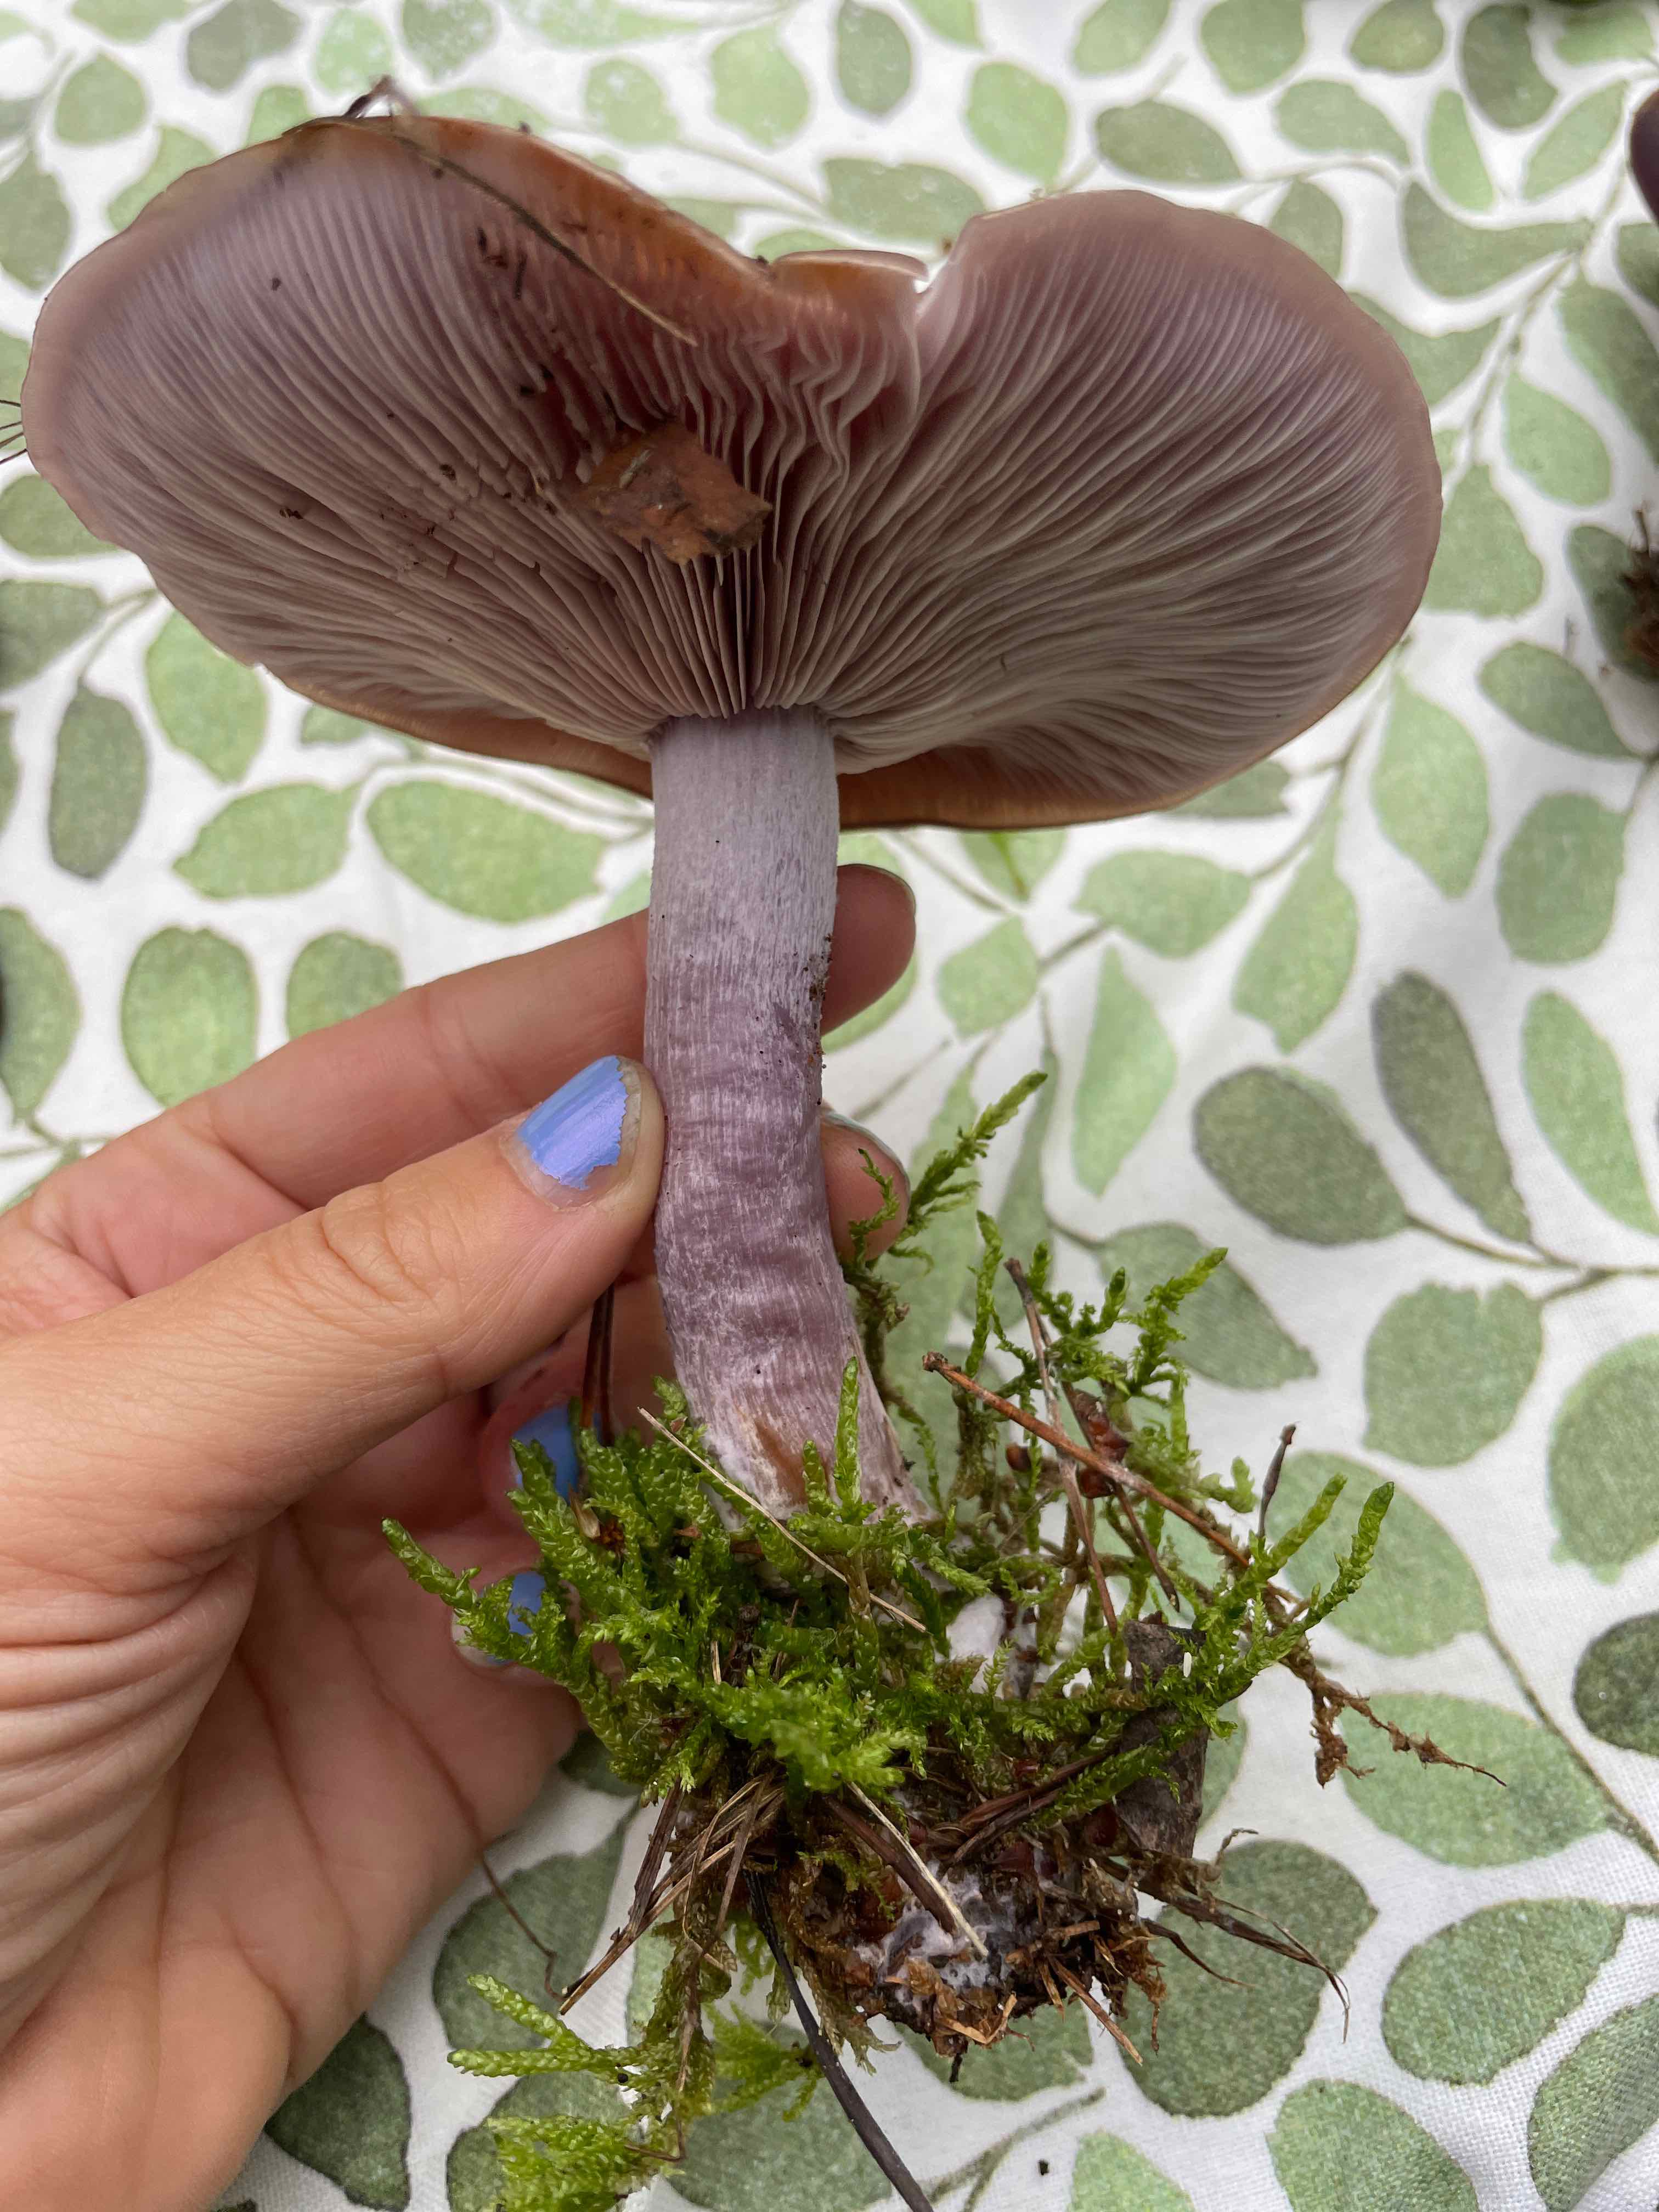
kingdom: Fungi
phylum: Basidiomycota
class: Agaricomycetes
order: Agaricales
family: Tricholomataceae
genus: Lepista
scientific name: Lepista nuda
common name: violet hekseringshat
